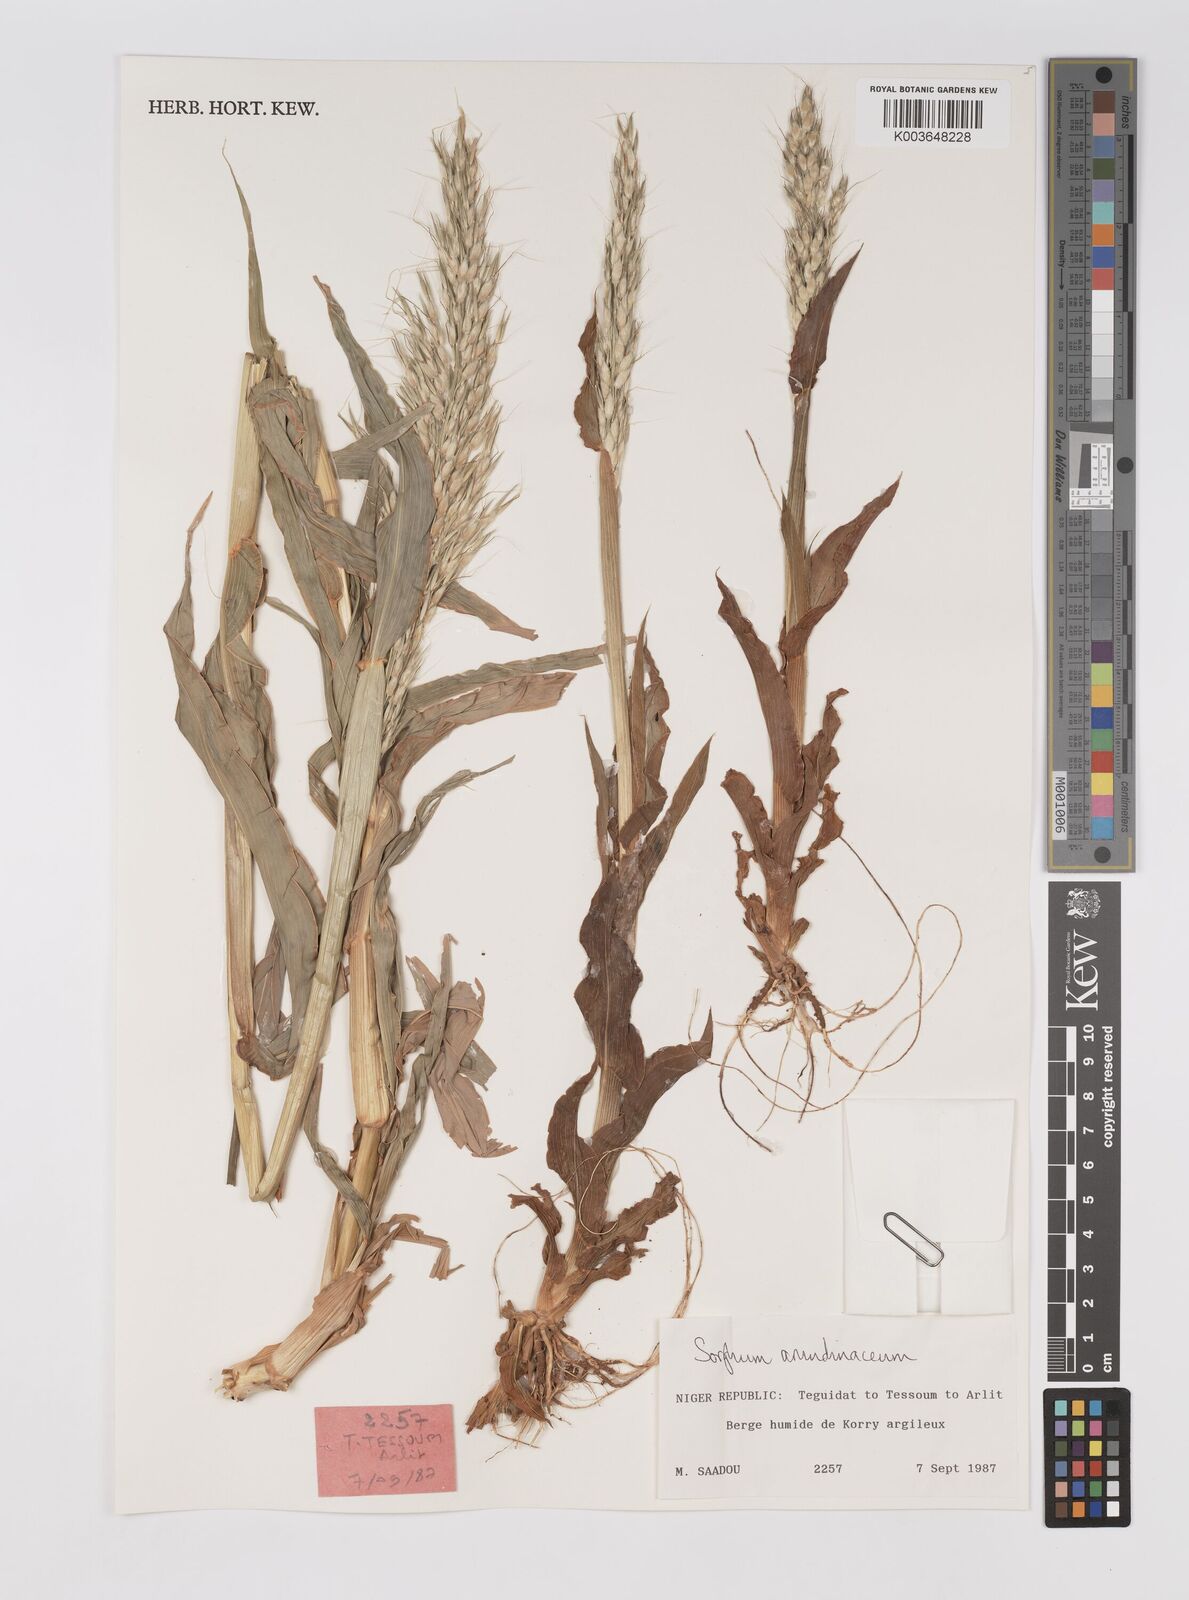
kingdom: Plantae
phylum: Tracheophyta
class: Liliopsida
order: Poales
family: Poaceae
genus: Sorghum
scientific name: Sorghum arundinaceum
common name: Sorghum
